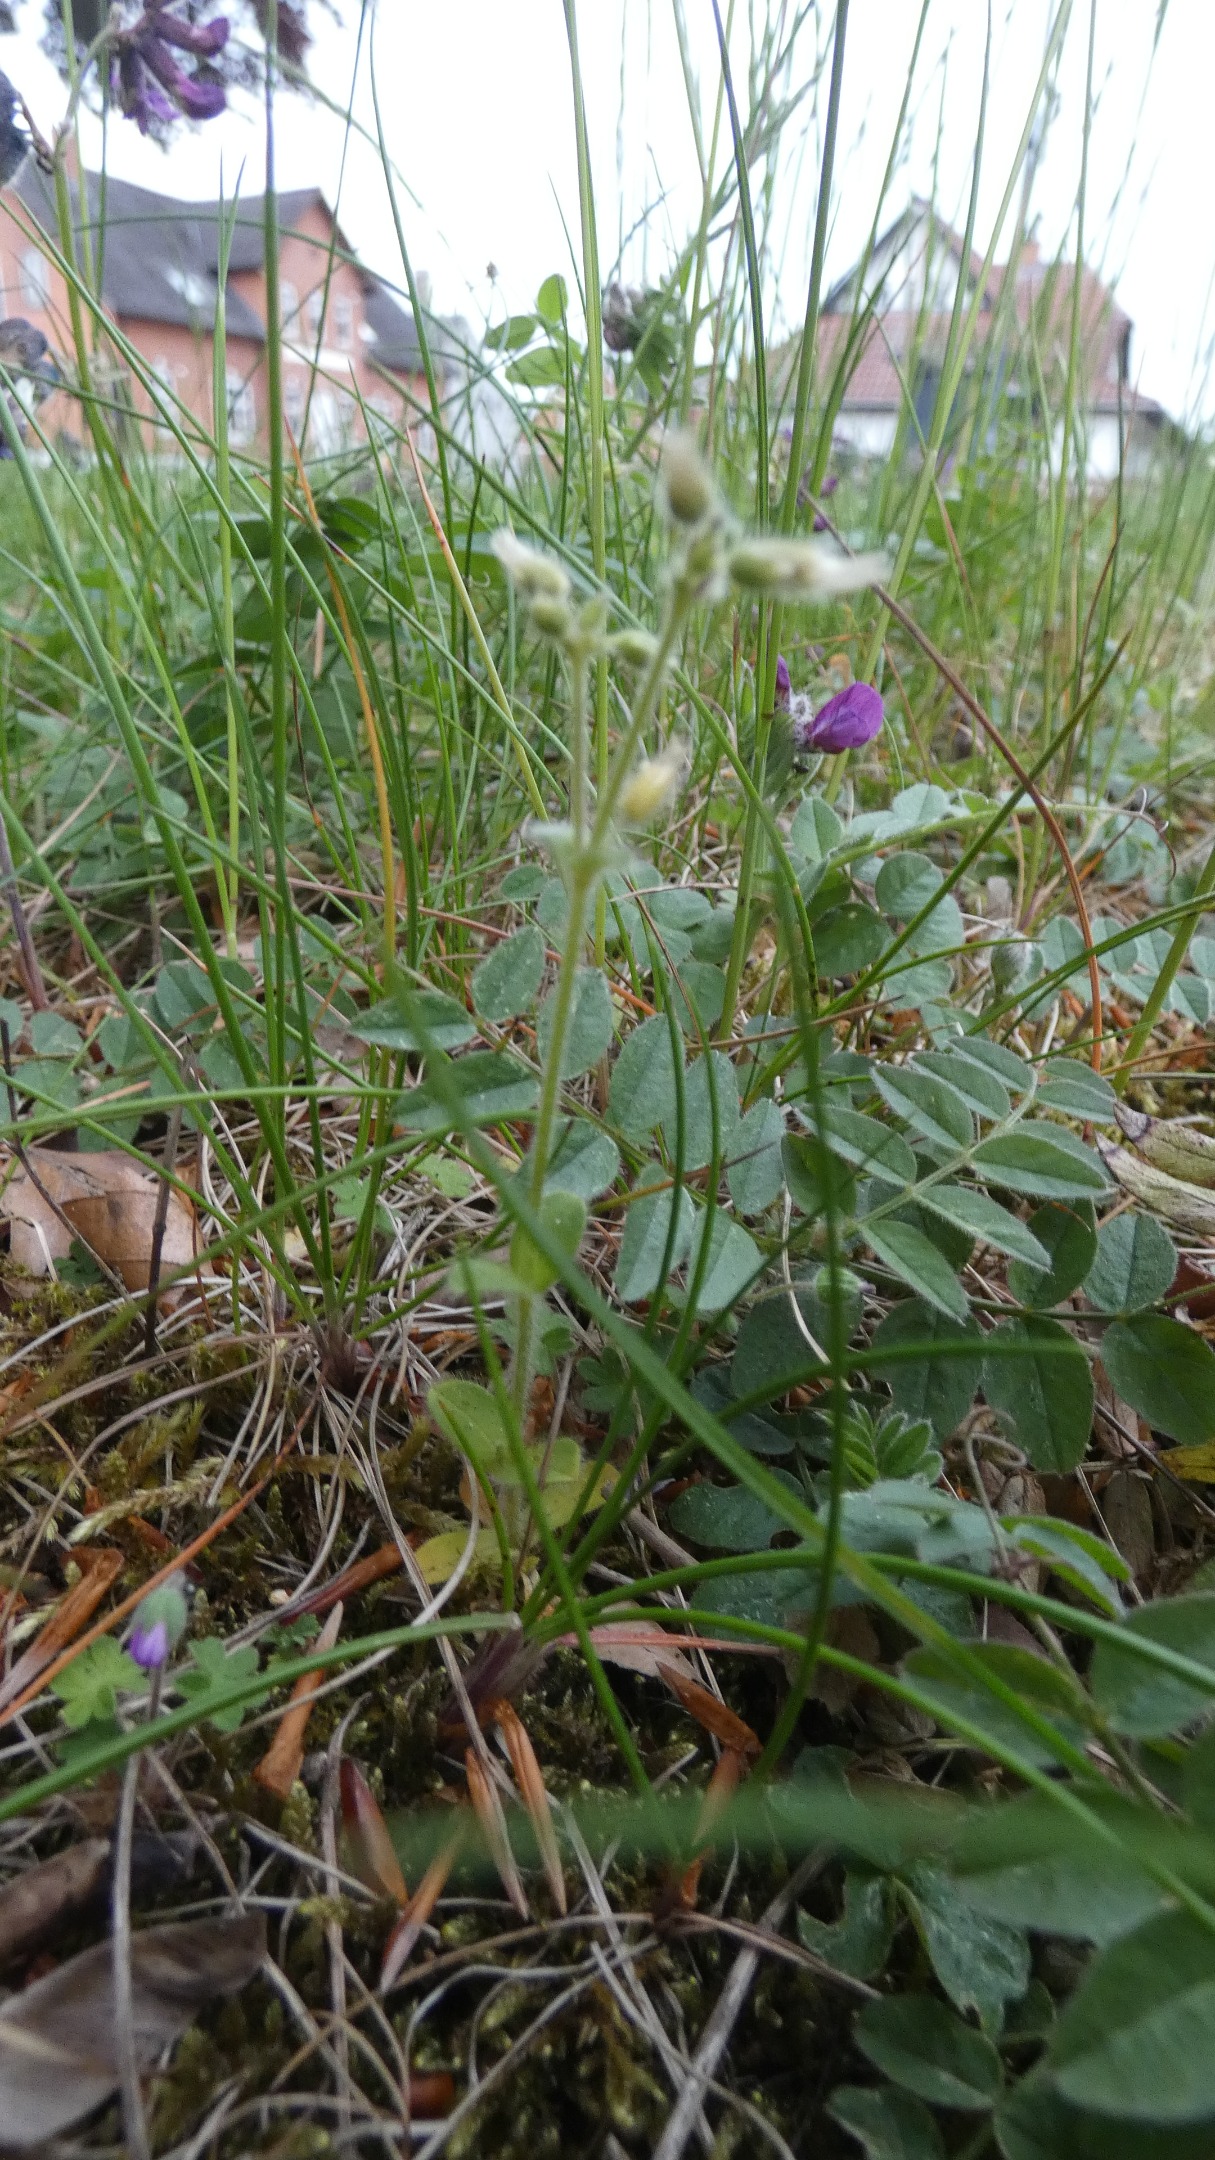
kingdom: Plantae
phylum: Tracheophyta
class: Magnoliopsida
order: Caryophyllales
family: Caryophyllaceae
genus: Cerastium
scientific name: Cerastium fontanum
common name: Almindelig hønsetarm
